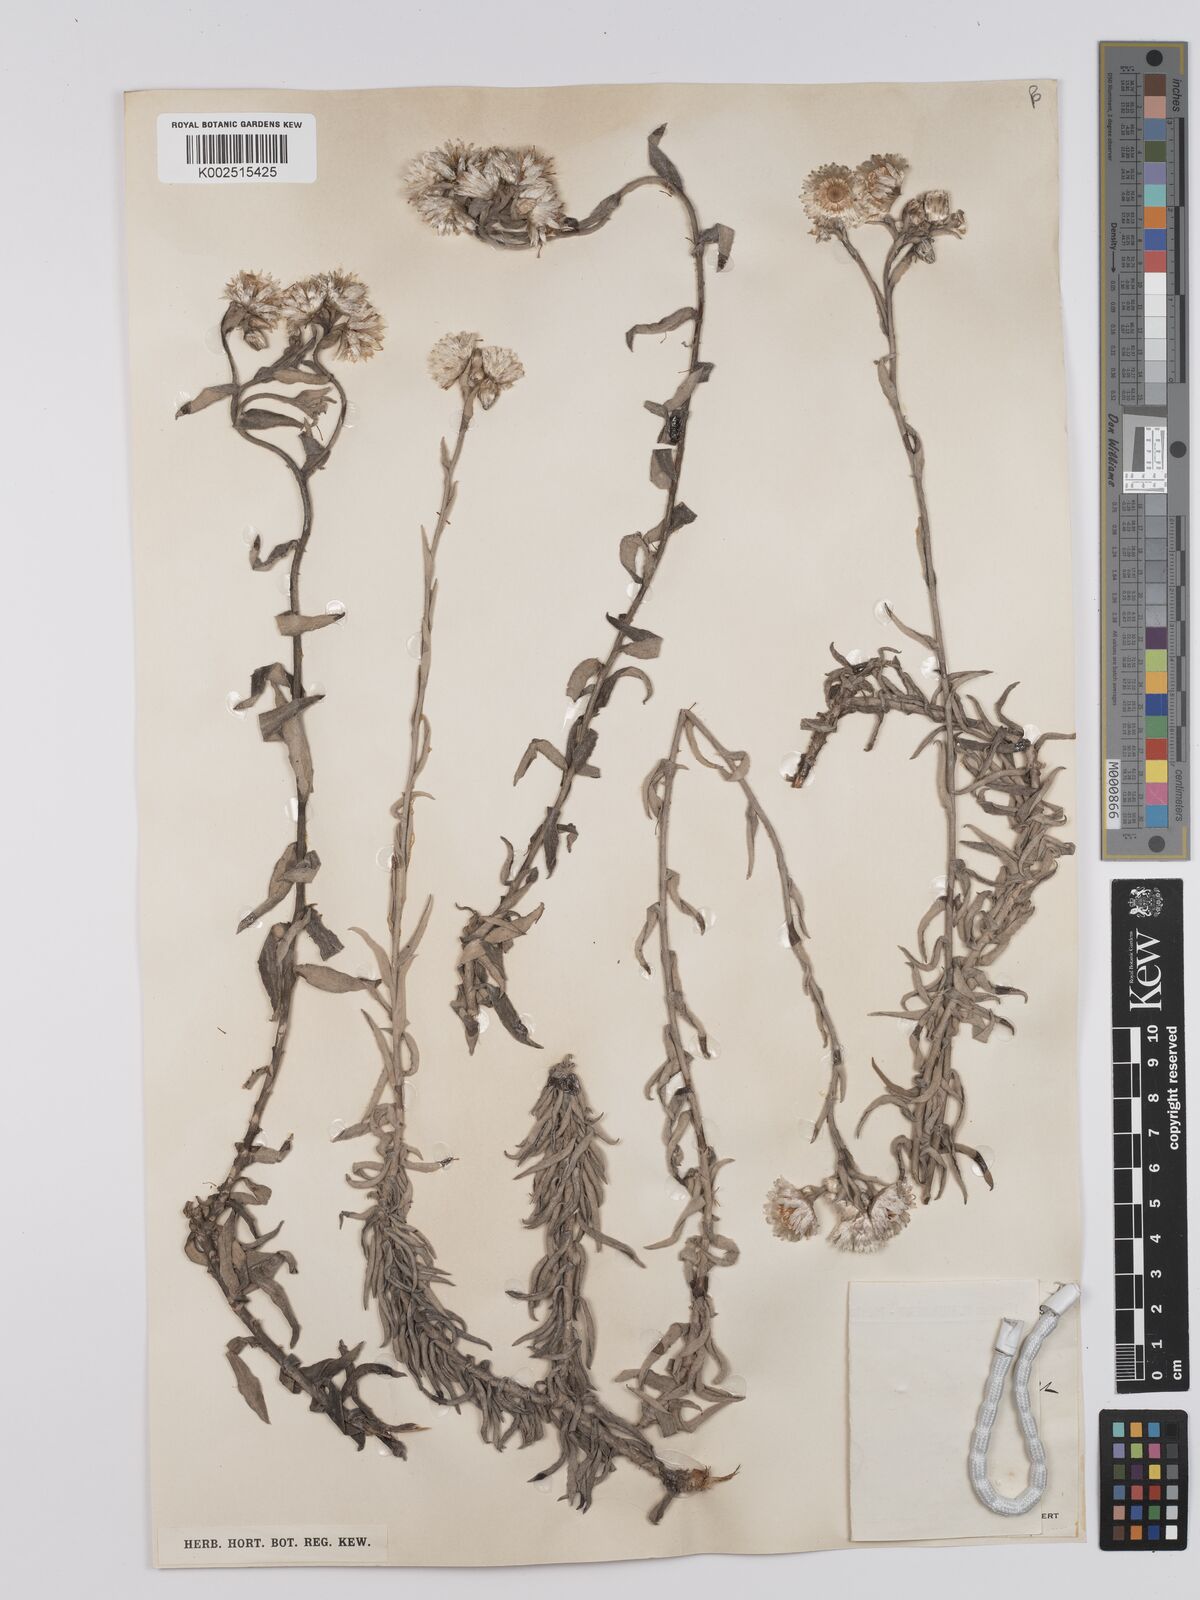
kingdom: Plantae
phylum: Tracheophyta
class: Magnoliopsida
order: Asterales
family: Asteraceae
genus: Helichrysum
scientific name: Helichrysum mirabile
